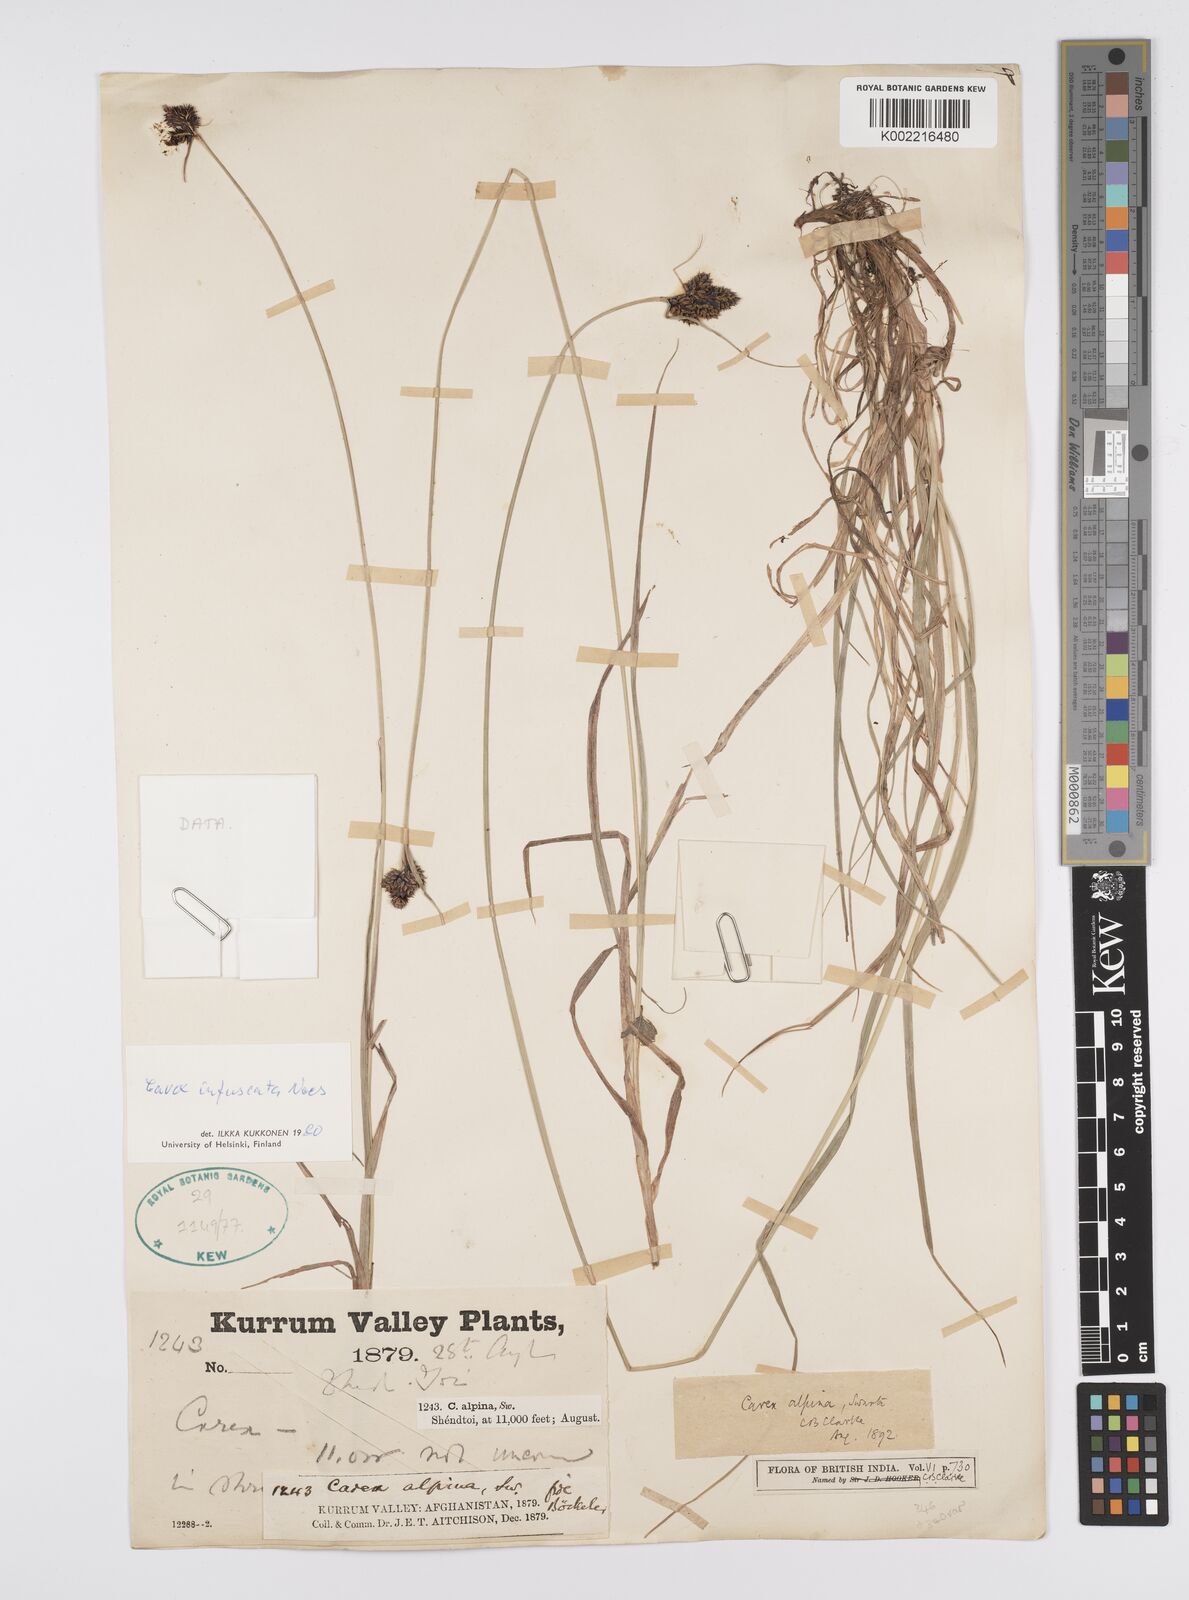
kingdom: Plantae
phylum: Tracheophyta
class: Liliopsida
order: Poales
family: Cyperaceae
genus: Carex
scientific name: Carex infuscata
